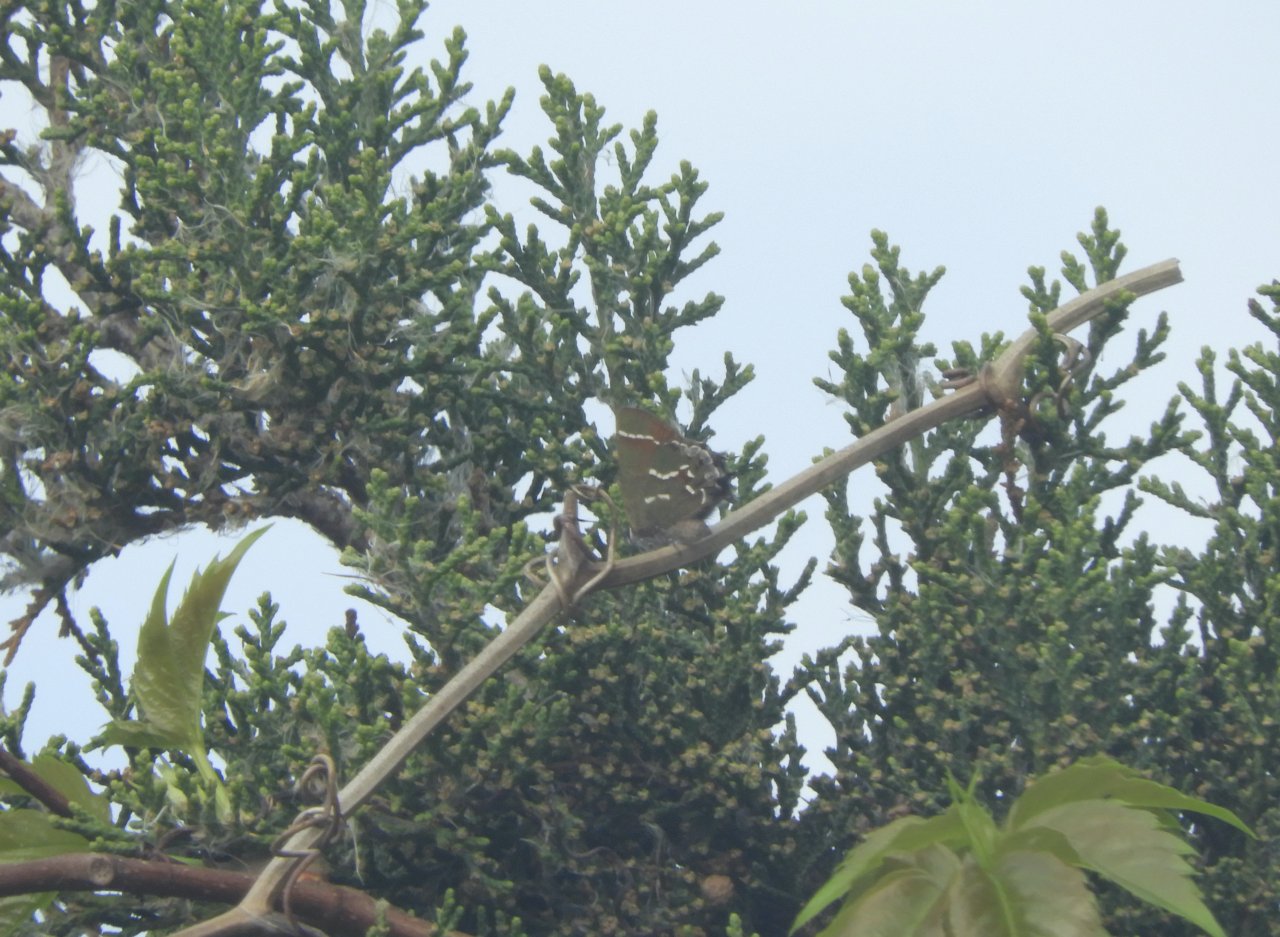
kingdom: Animalia
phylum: Arthropoda
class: Insecta
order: Lepidoptera
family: Lycaenidae
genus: Mitoura
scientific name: Mitoura gryneus
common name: Juniper Hairstreak
